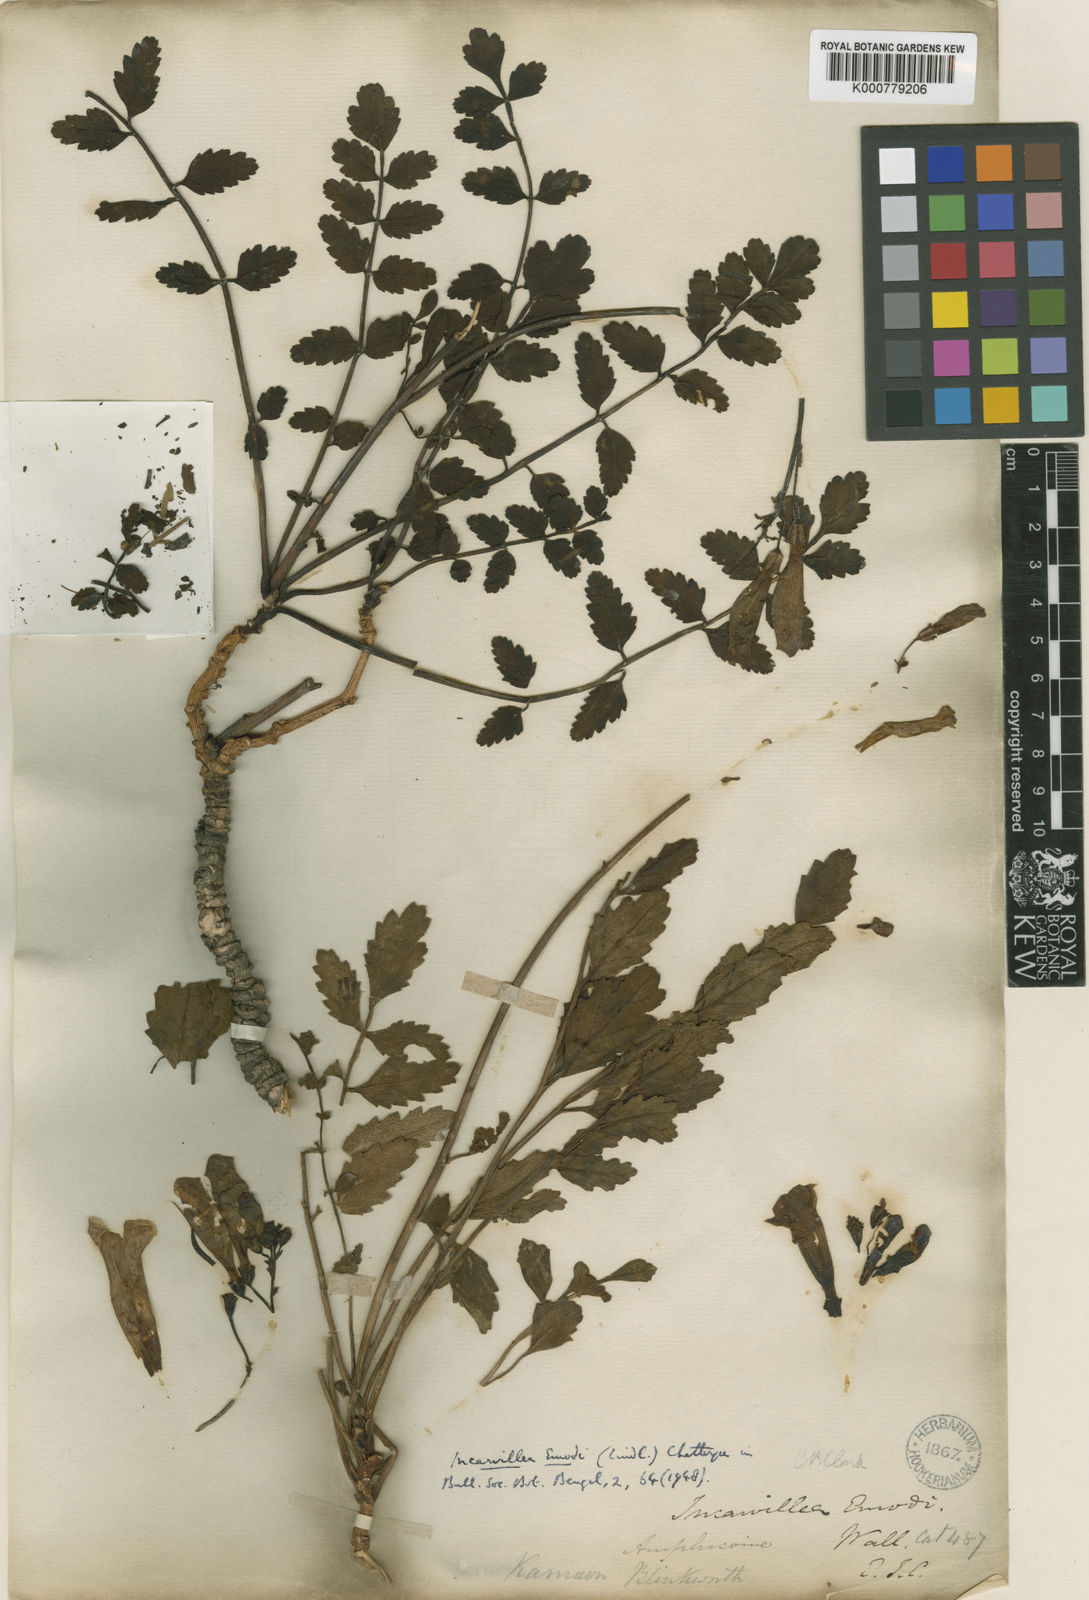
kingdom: Plantae
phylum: Tracheophyta
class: Magnoliopsida
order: Lamiales
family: Bignoniaceae
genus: Incarvillea
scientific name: Incarvillea
